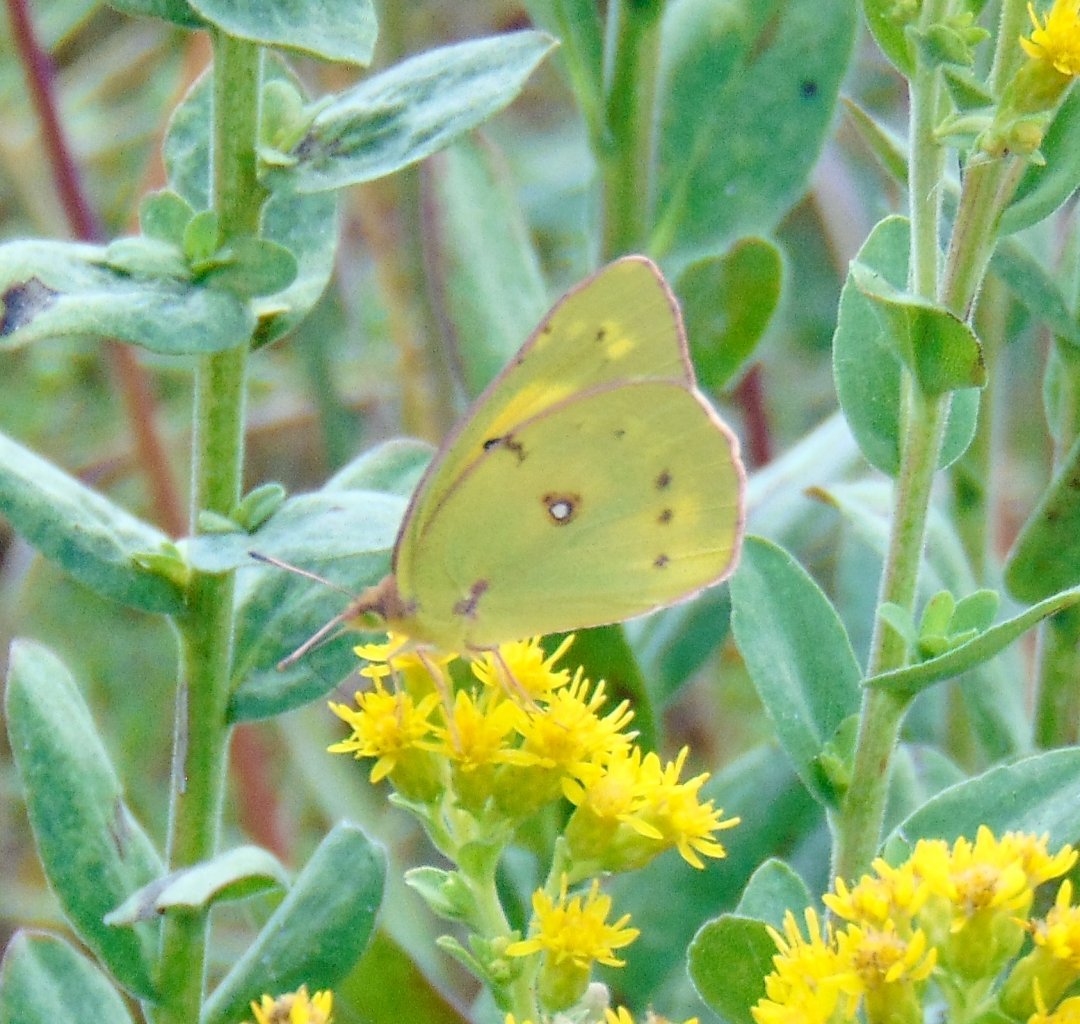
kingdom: Animalia
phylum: Arthropoda
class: Insecta
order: Lepidoptera
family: Pieridae
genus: Colias
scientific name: Colias philodice
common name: Clouded Sulphur
